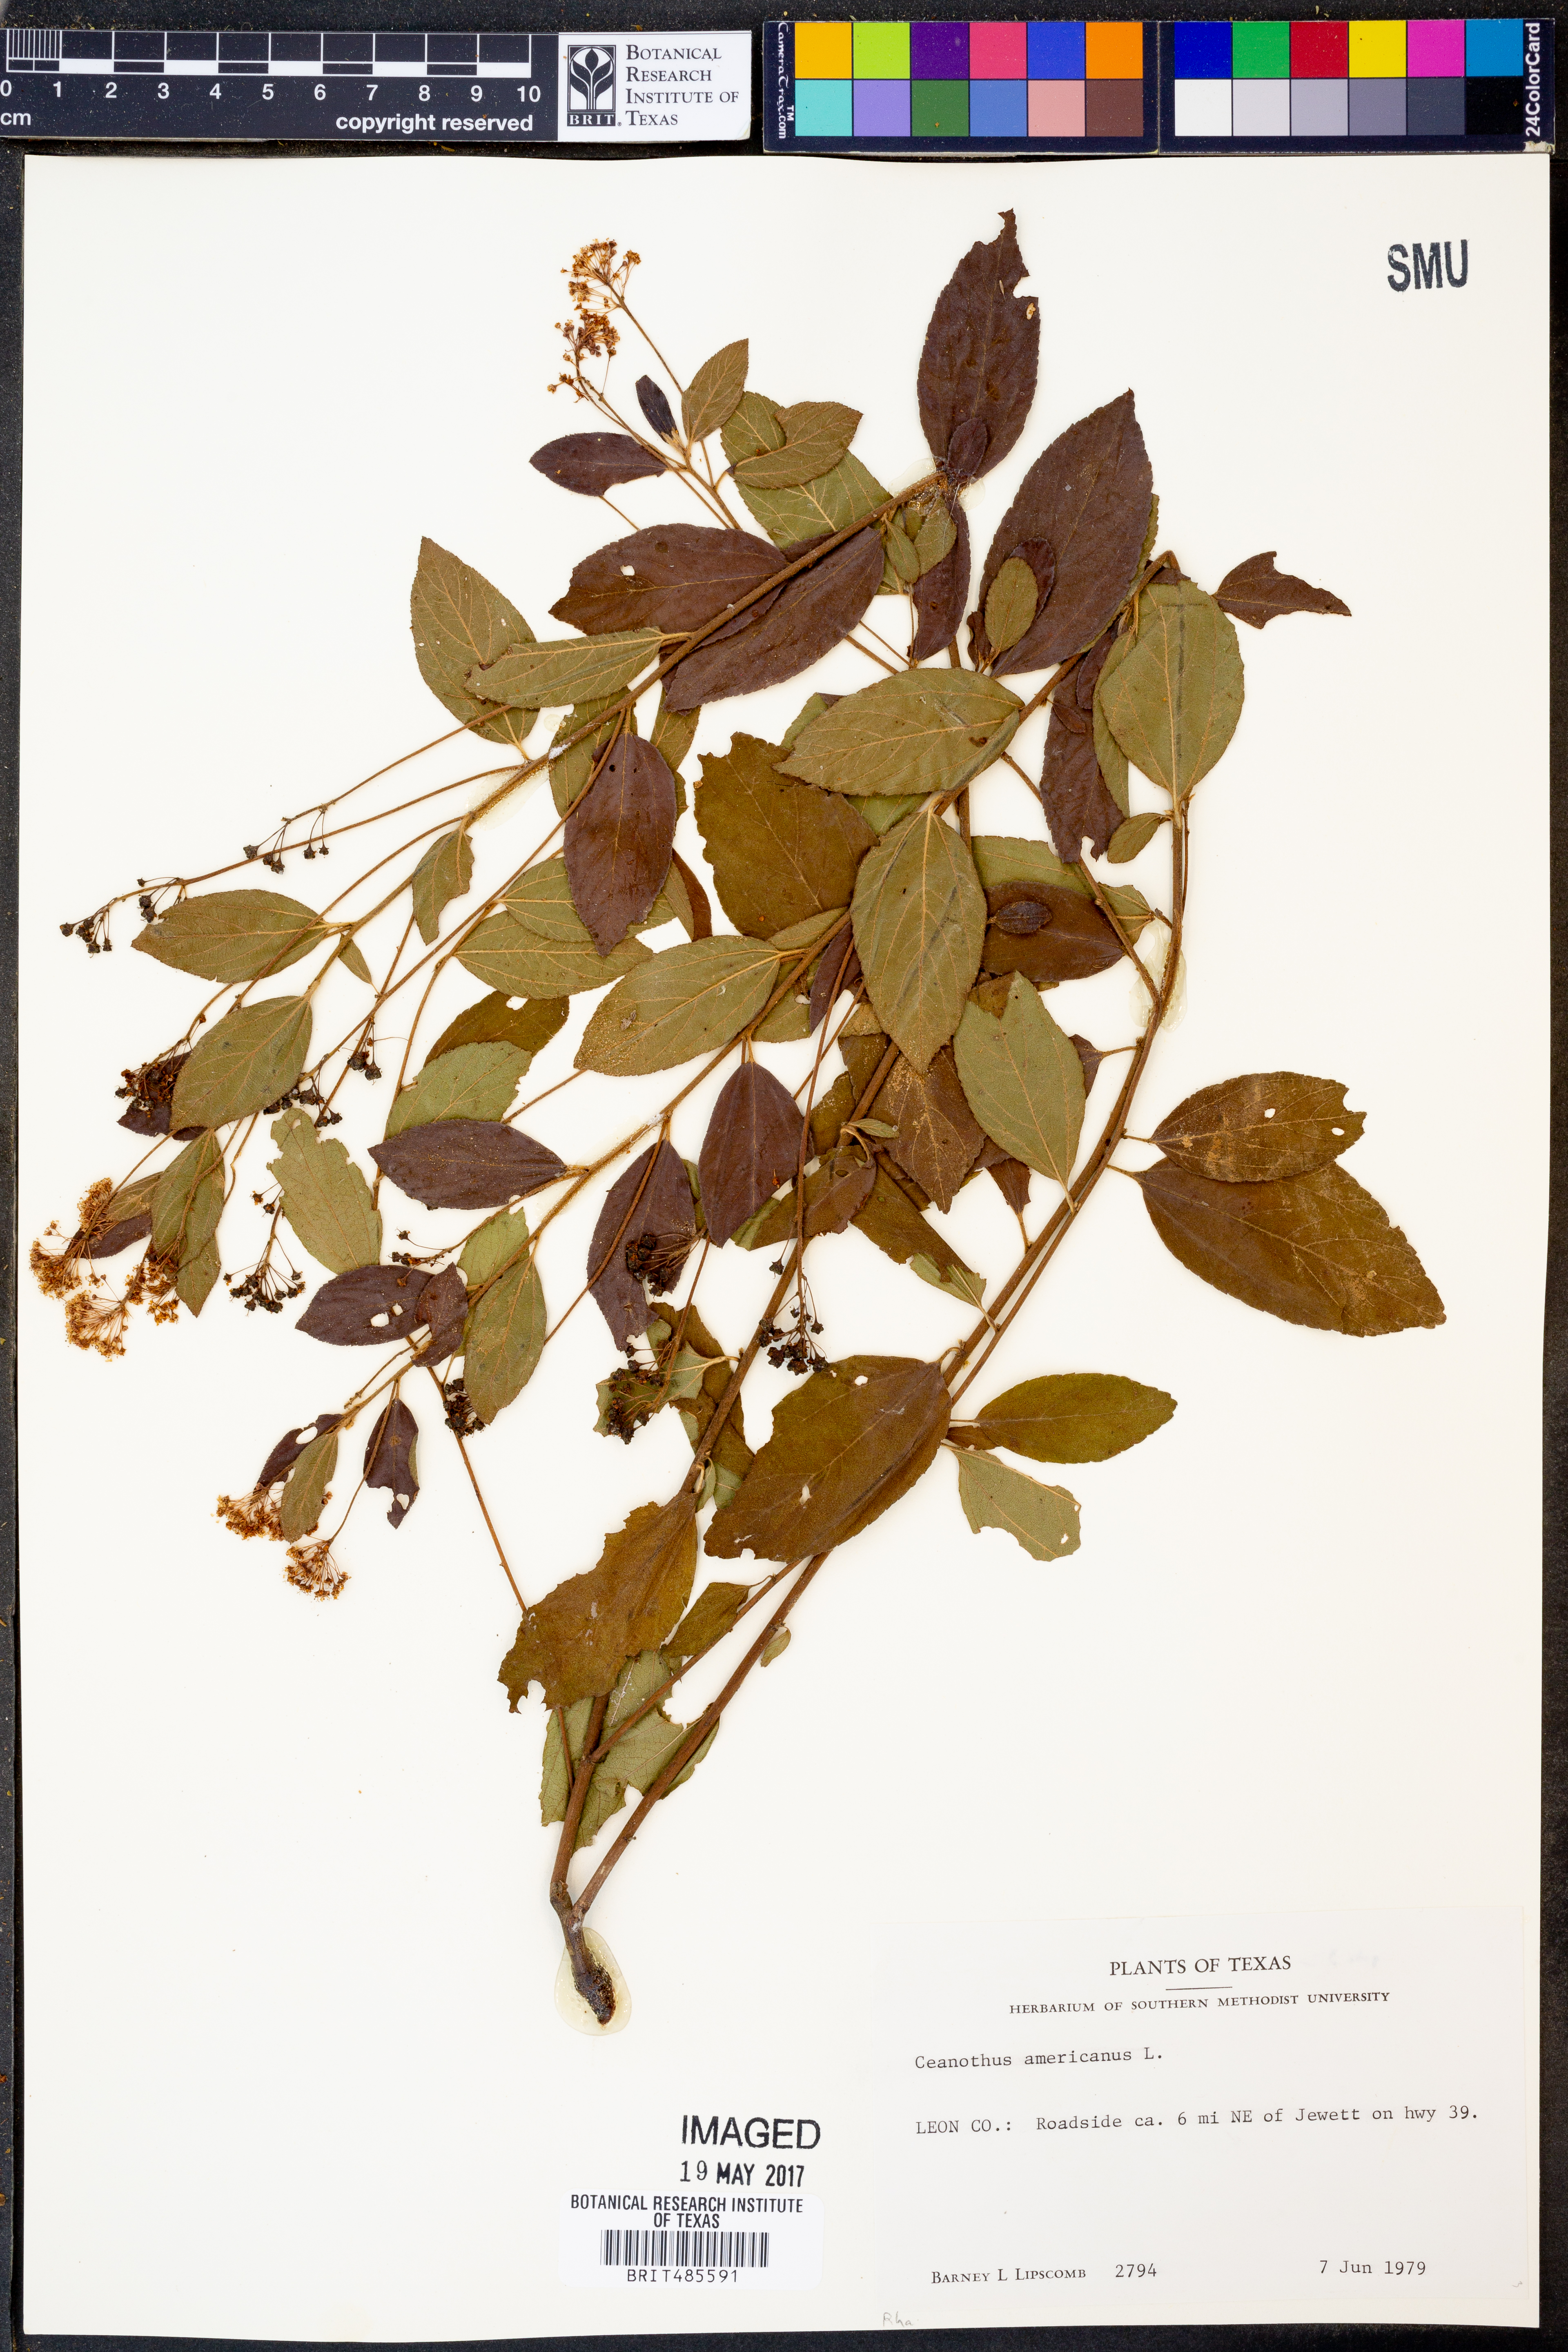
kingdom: Plantae
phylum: Tracheophyta
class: Magnoliopsida
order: Rosales
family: Rhamnaceae
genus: Ceanothus
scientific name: Ceanothus americanus
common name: Redroot
